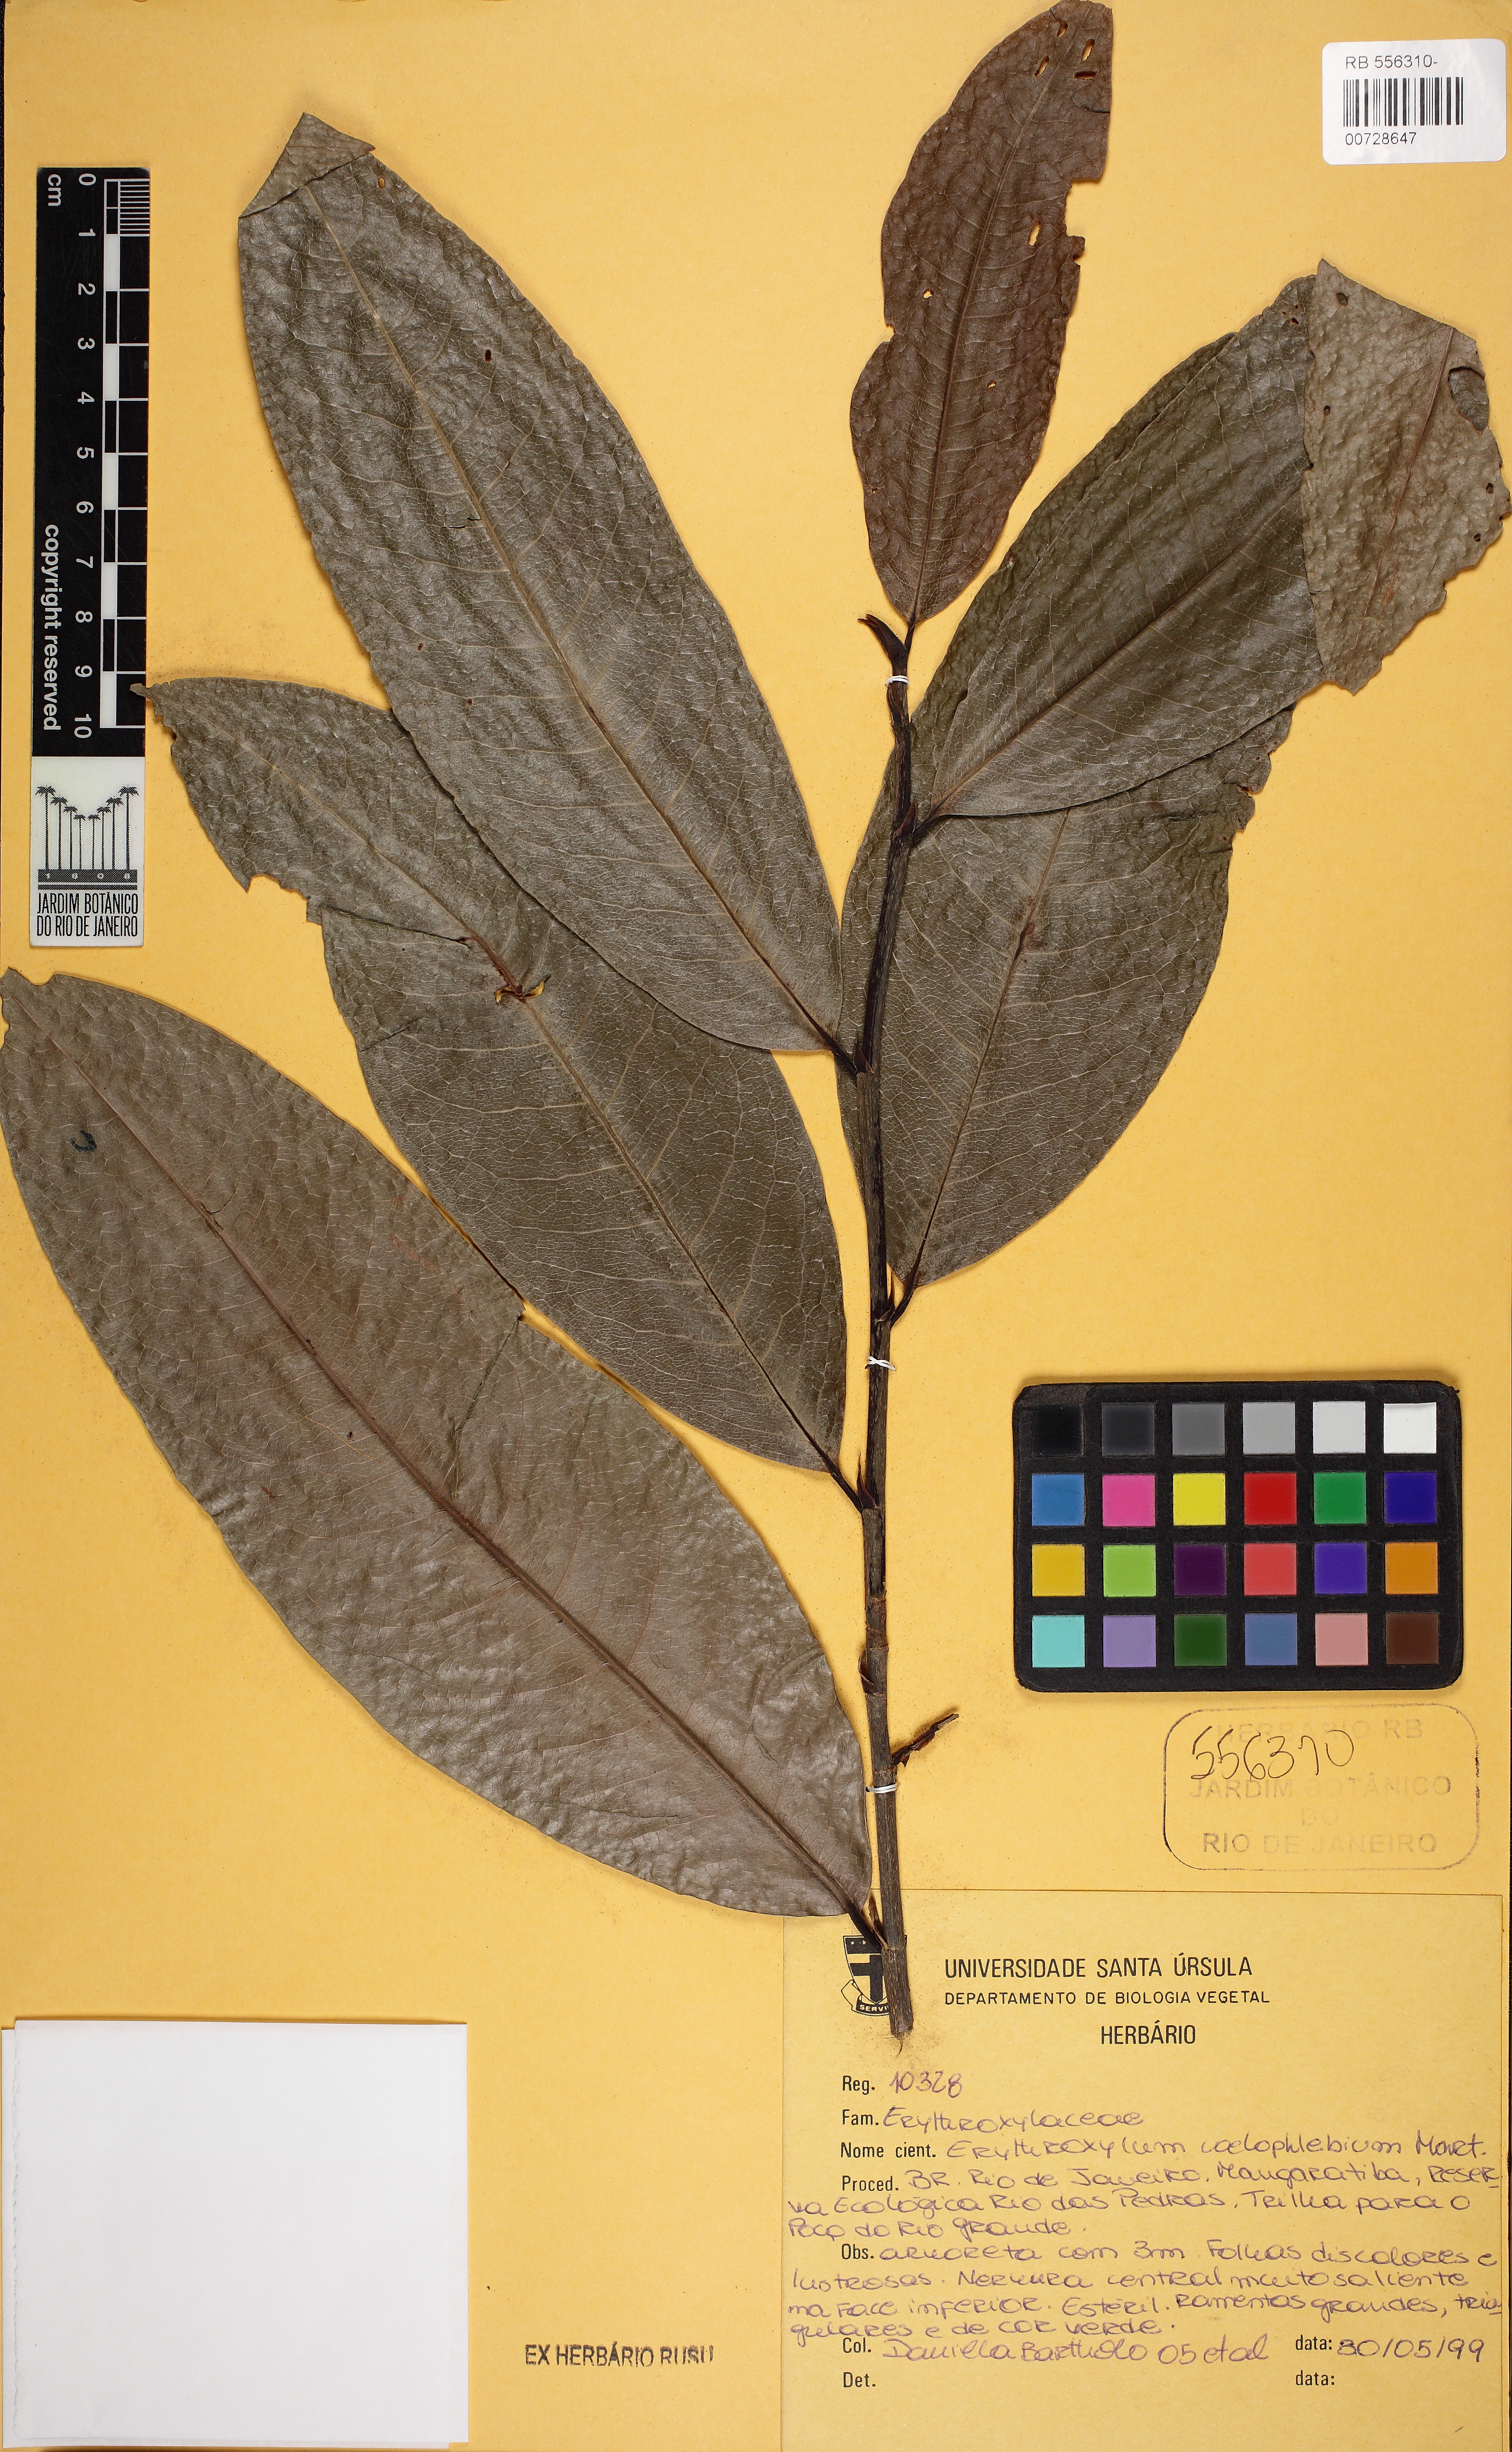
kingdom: Plantae
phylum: Tracheophyta
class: Magnoliopsida
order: Malpighiales
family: Erythroxylaceae
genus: Erythroxylum
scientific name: Erythroxylum pulchrum
